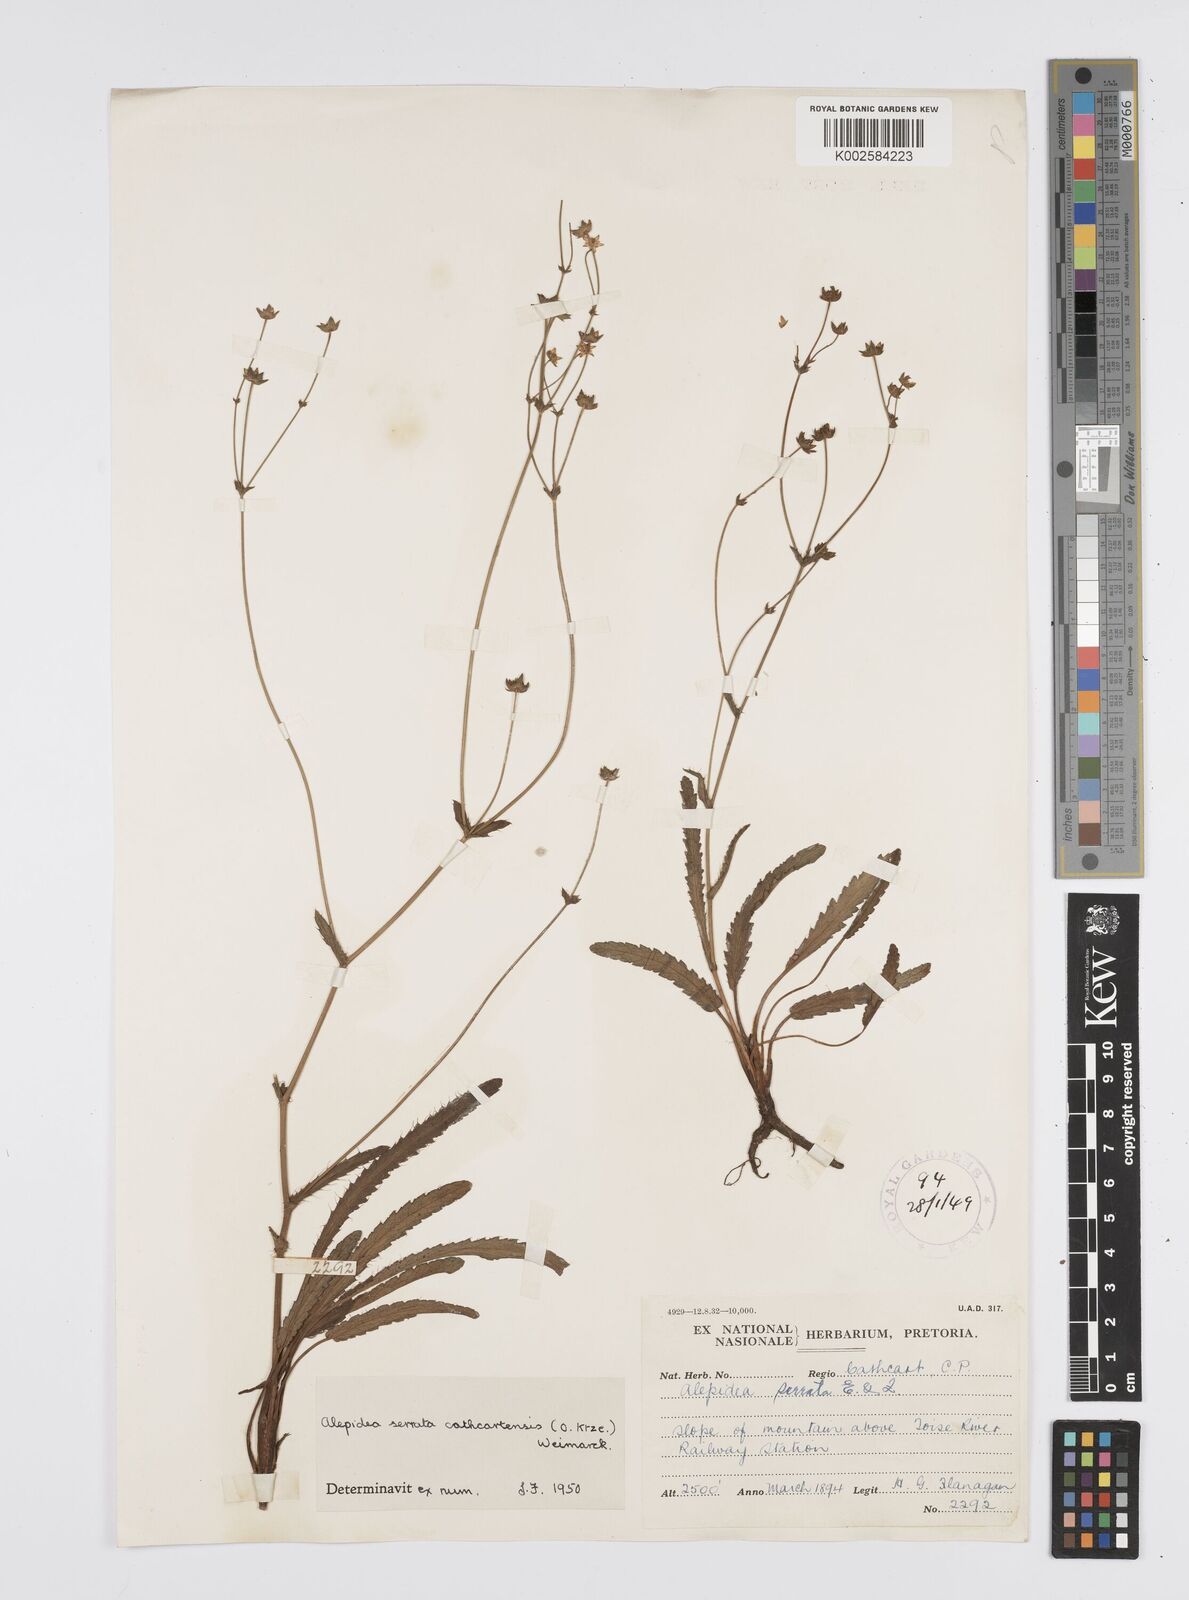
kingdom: Plantae
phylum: Tracheophyta
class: Magnoliopsida
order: Apiales
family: Apiaceae
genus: Alepidea
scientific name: Alepidea serrata
